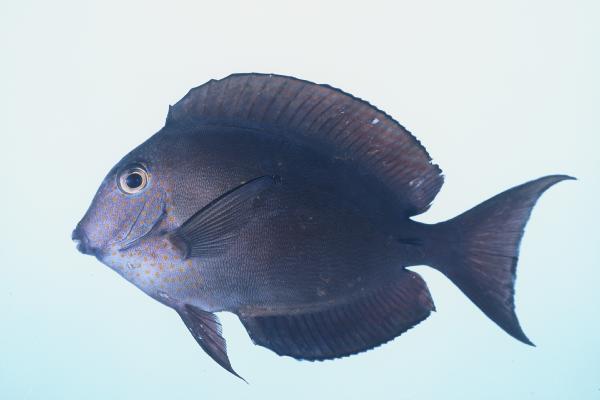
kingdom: Animalia
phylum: Chordata
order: Perciformes
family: Acanthuridae
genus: Acanthurus
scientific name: Acanthurus nigrofuscus
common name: Blackspot surgeonfish
